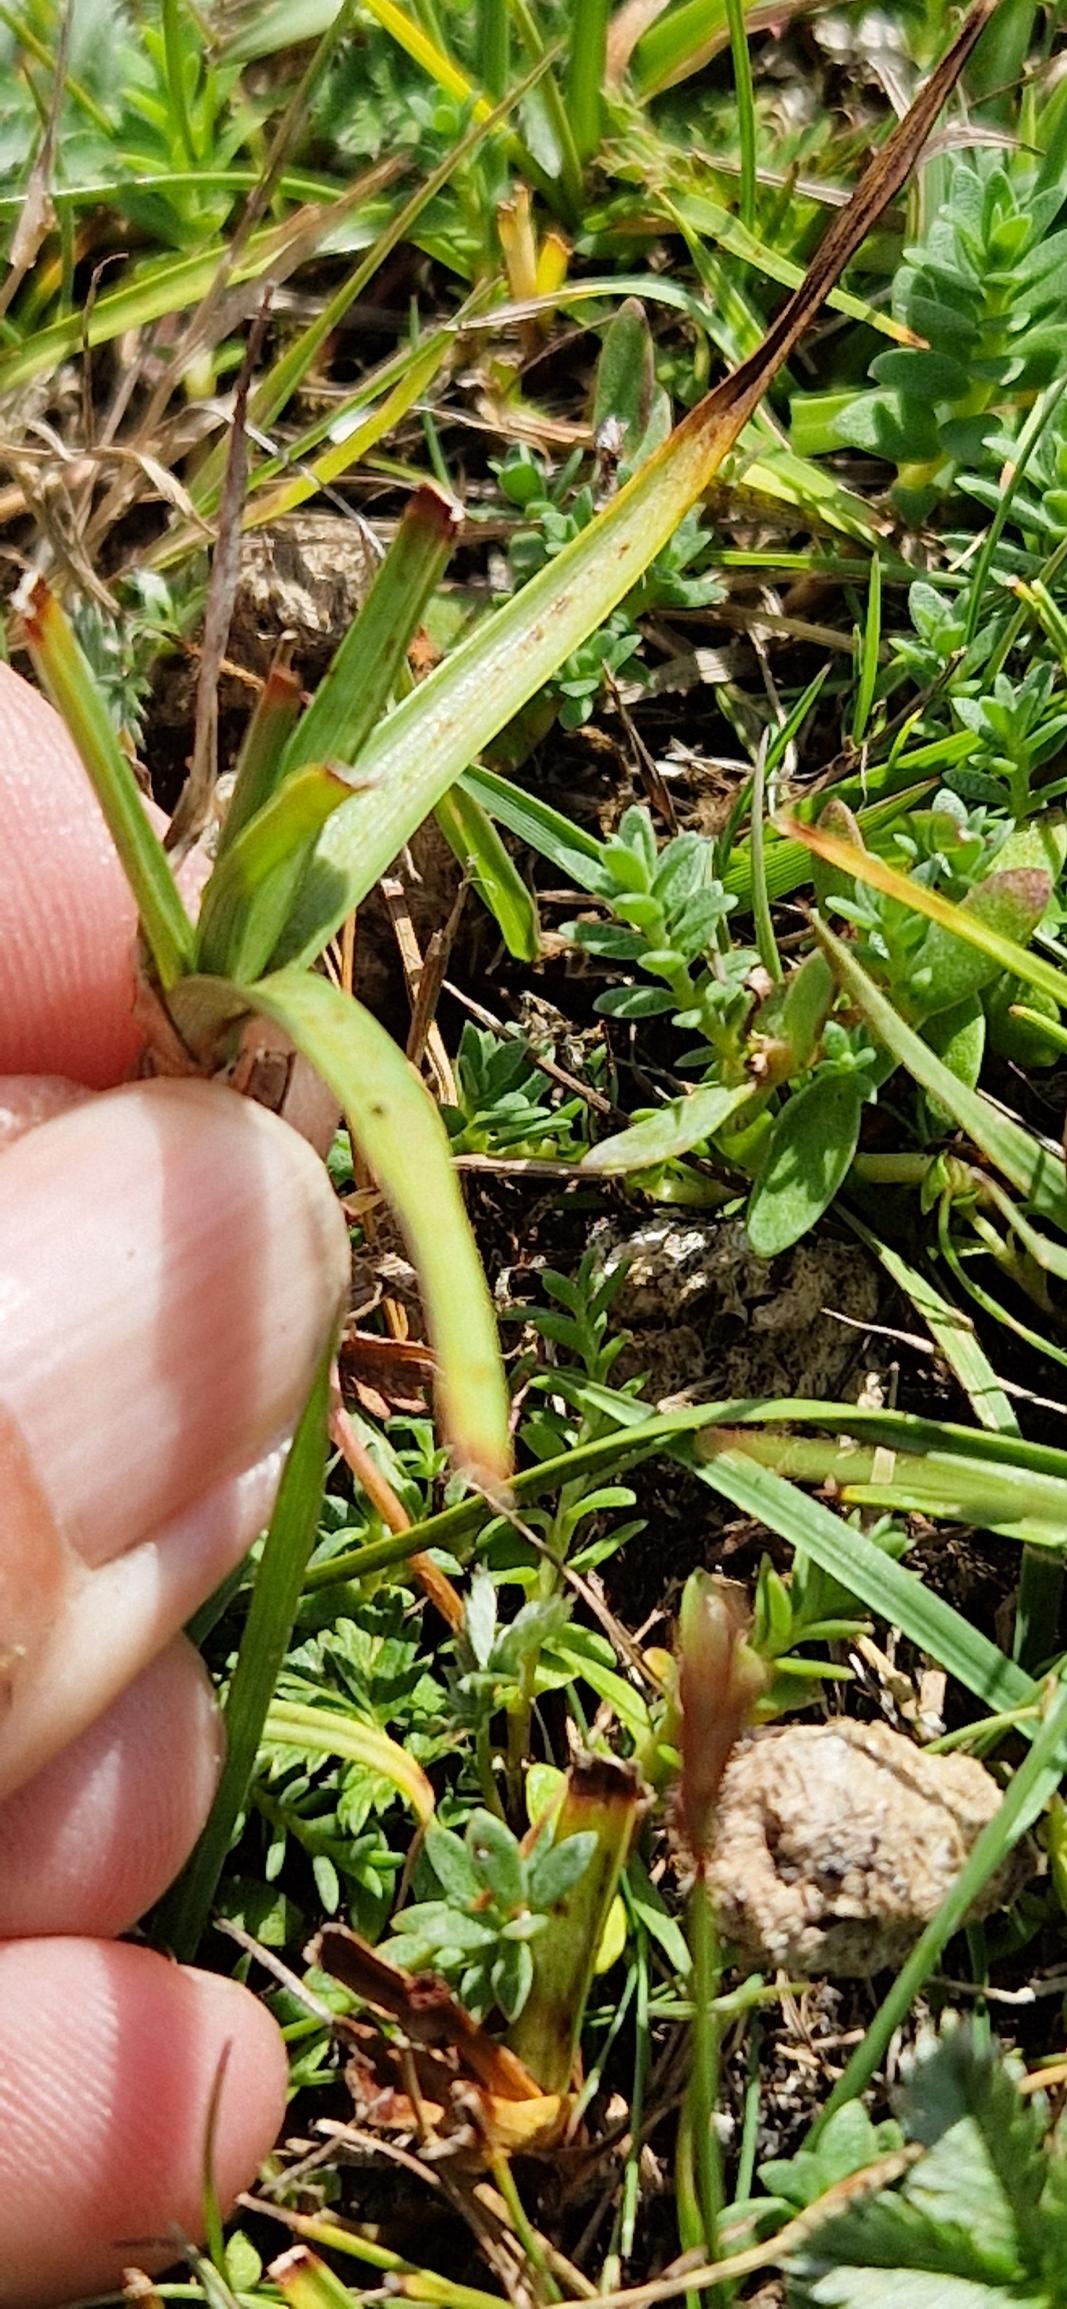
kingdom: Plantae
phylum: Tracheophyta
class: Liliopsida
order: Poales
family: Cyperaceae
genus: Blysmus
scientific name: Blysmus compressus
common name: Fladtrykt kogleaks
